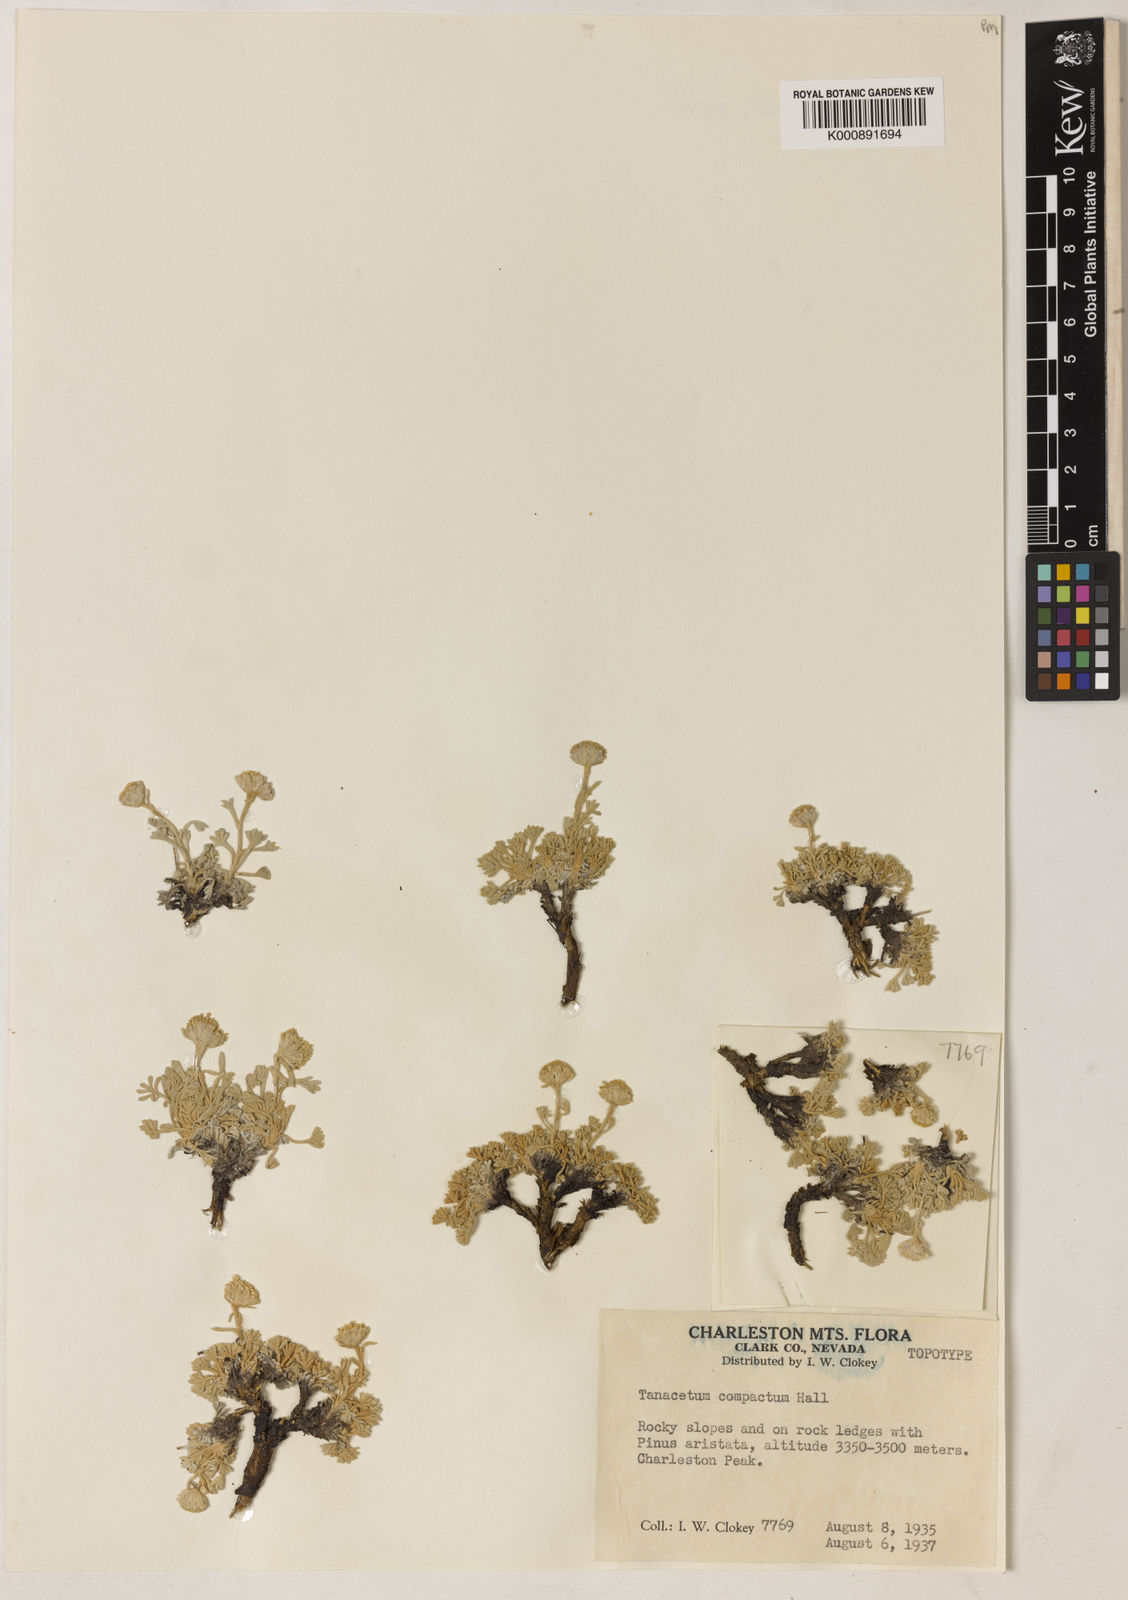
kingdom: Plantae
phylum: Tracheophyta
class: Magnoliopsida
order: Asterales
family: Asteraceae
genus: Artemisia
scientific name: Artemisia
